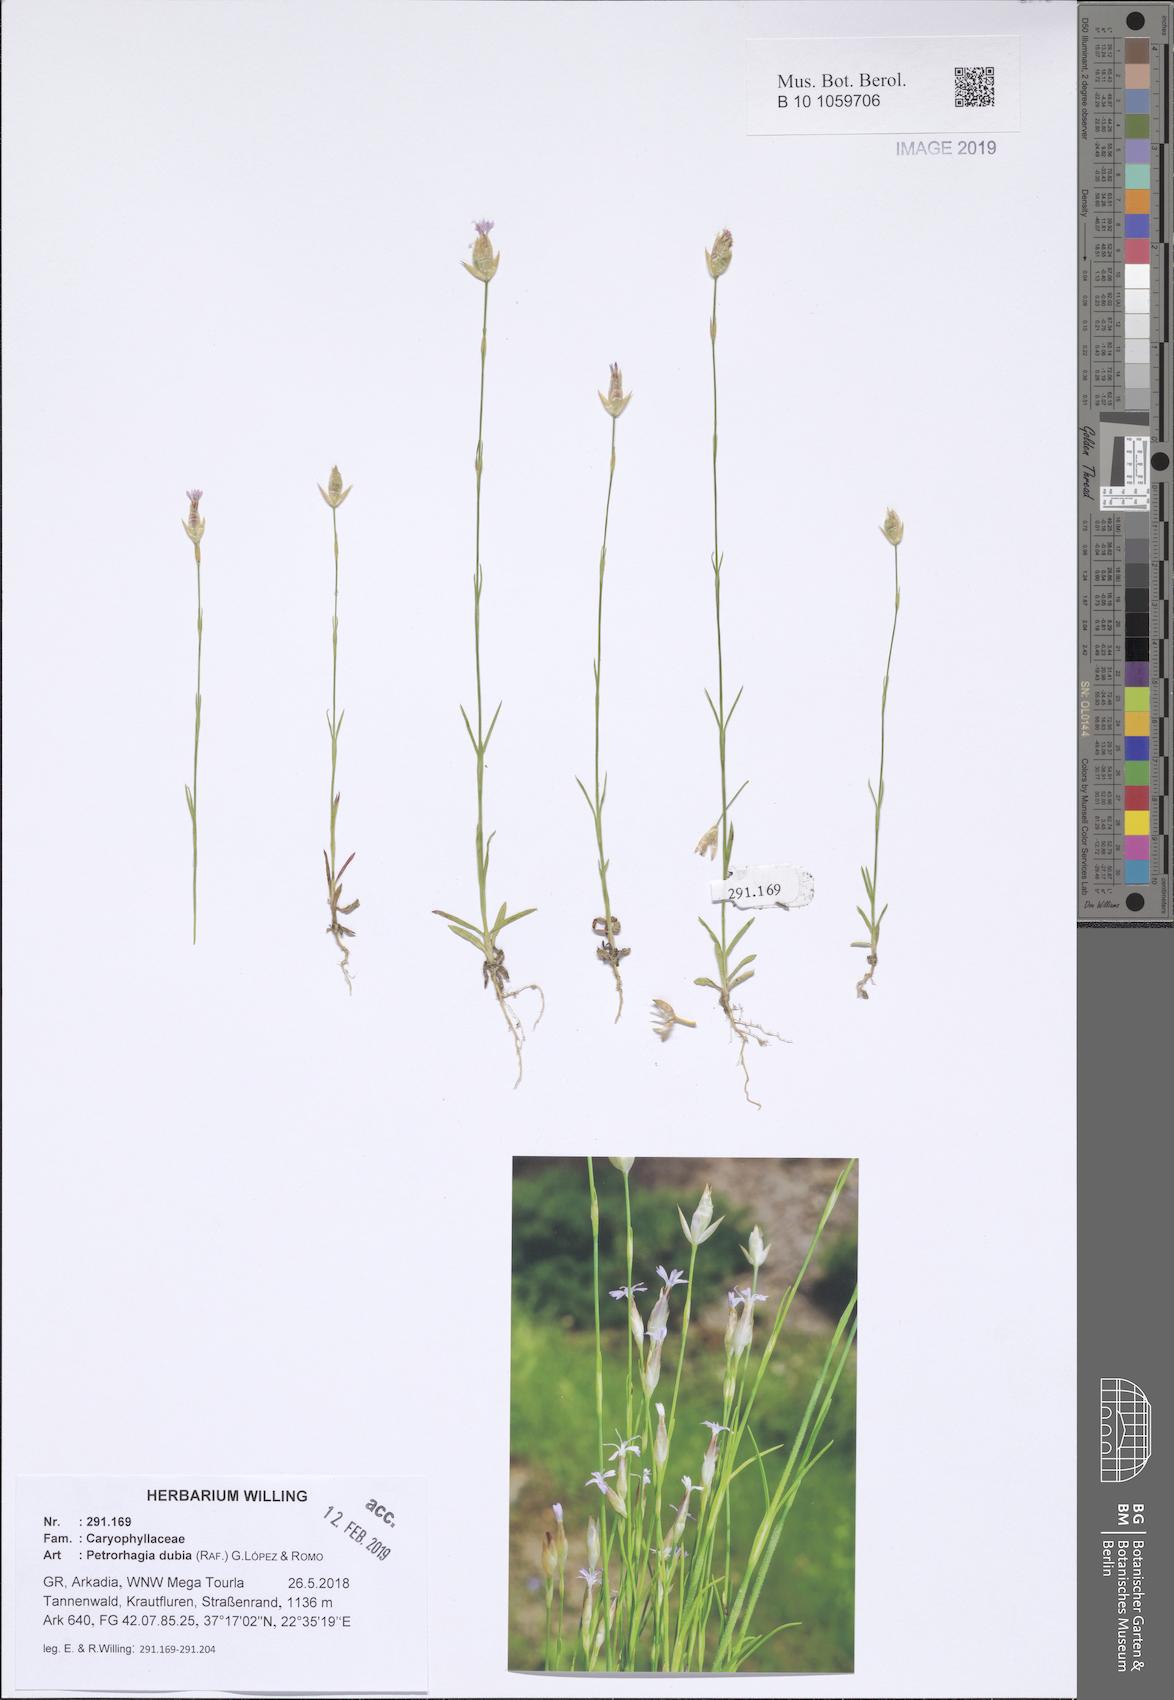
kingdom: Plantae
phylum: Tracheophyta
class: Magnoliopsida
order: Caryophyllales
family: Caryophyllaceae
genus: Petrorhagia
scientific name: Petrorhagia dubia
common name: Hairypink
